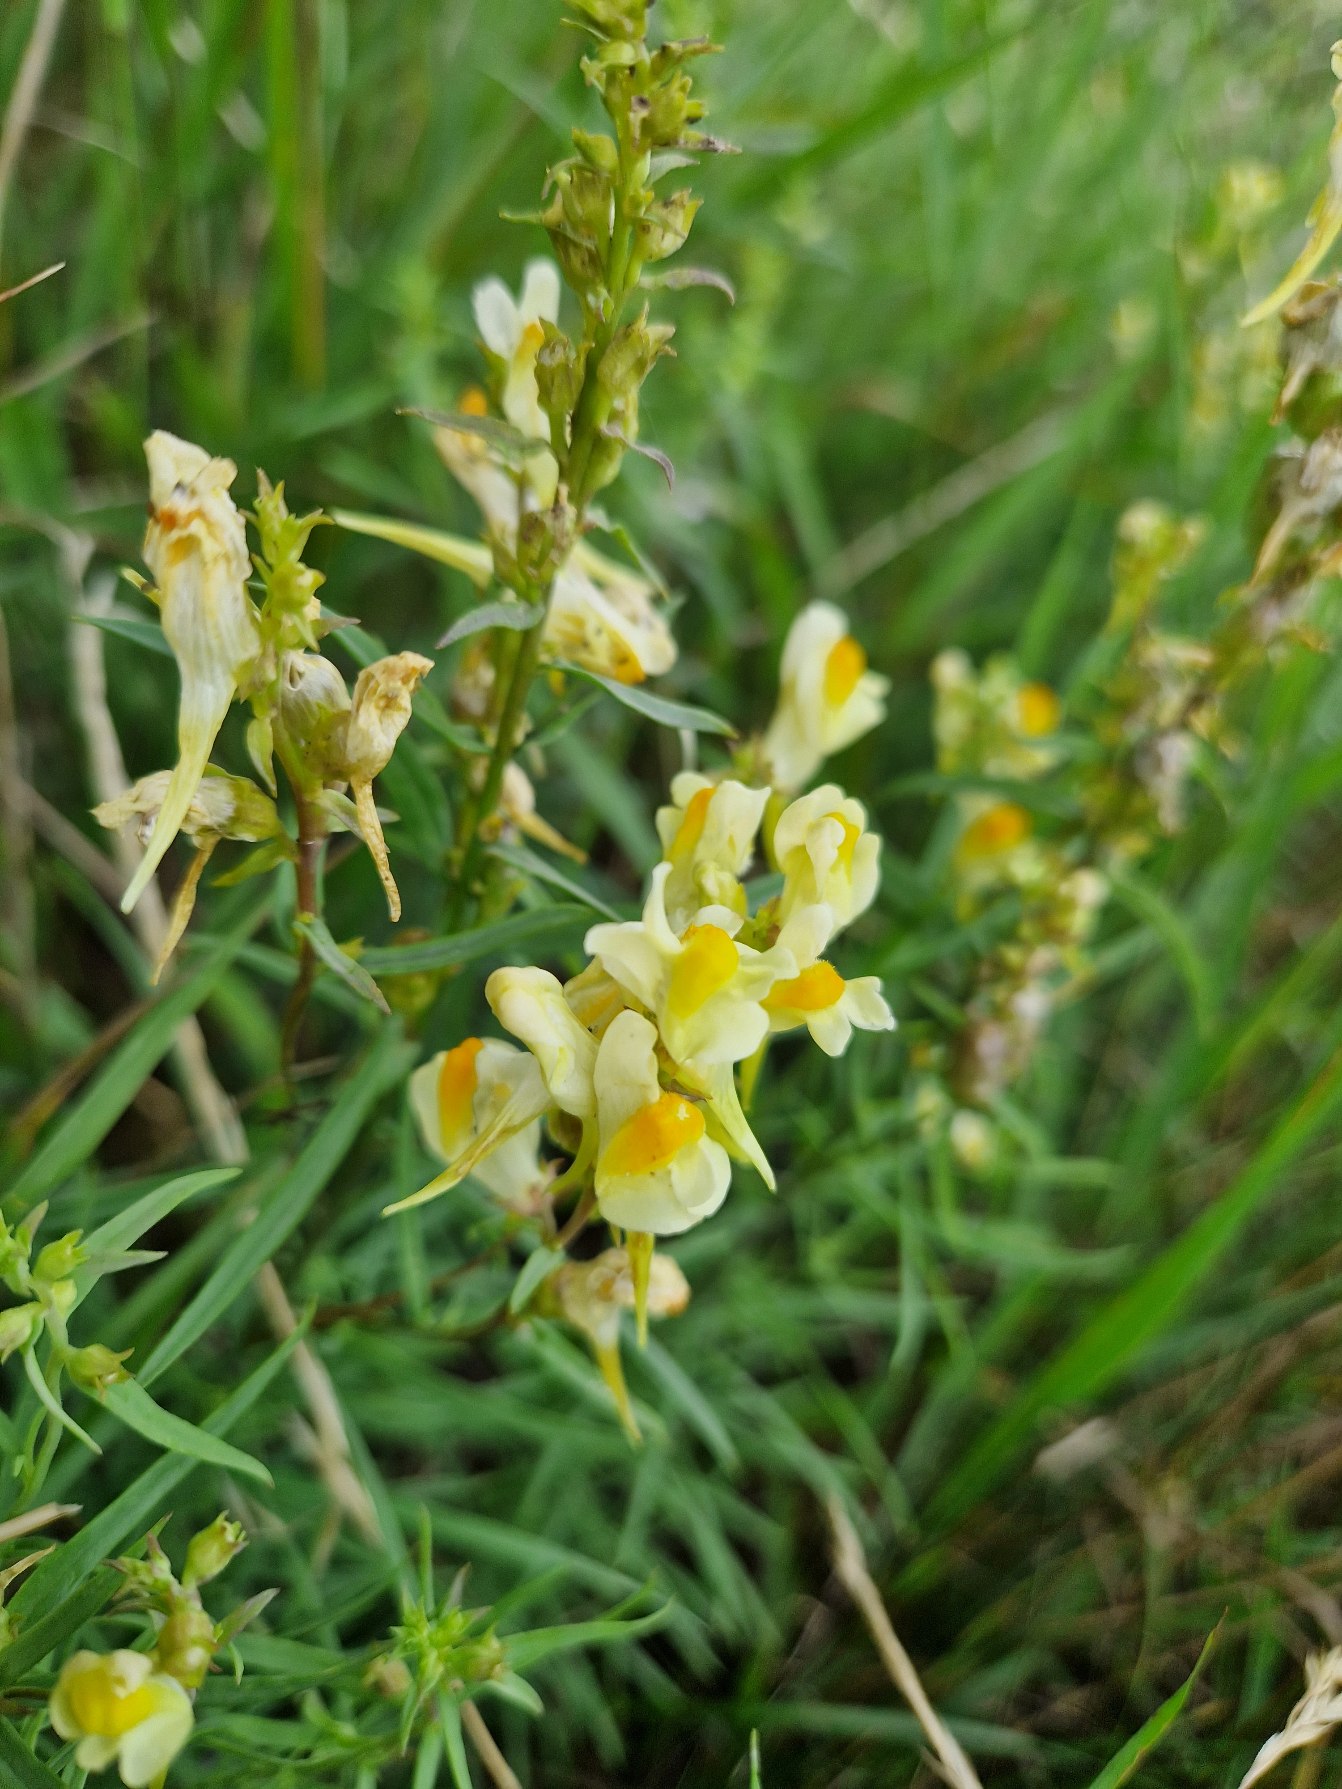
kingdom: Plantae
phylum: Tracheophyta
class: Magnoliopsida
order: Lamiales
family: Plantaginaceae
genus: Linaria
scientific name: Linaria vulgaris
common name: Almindelig torskemund
